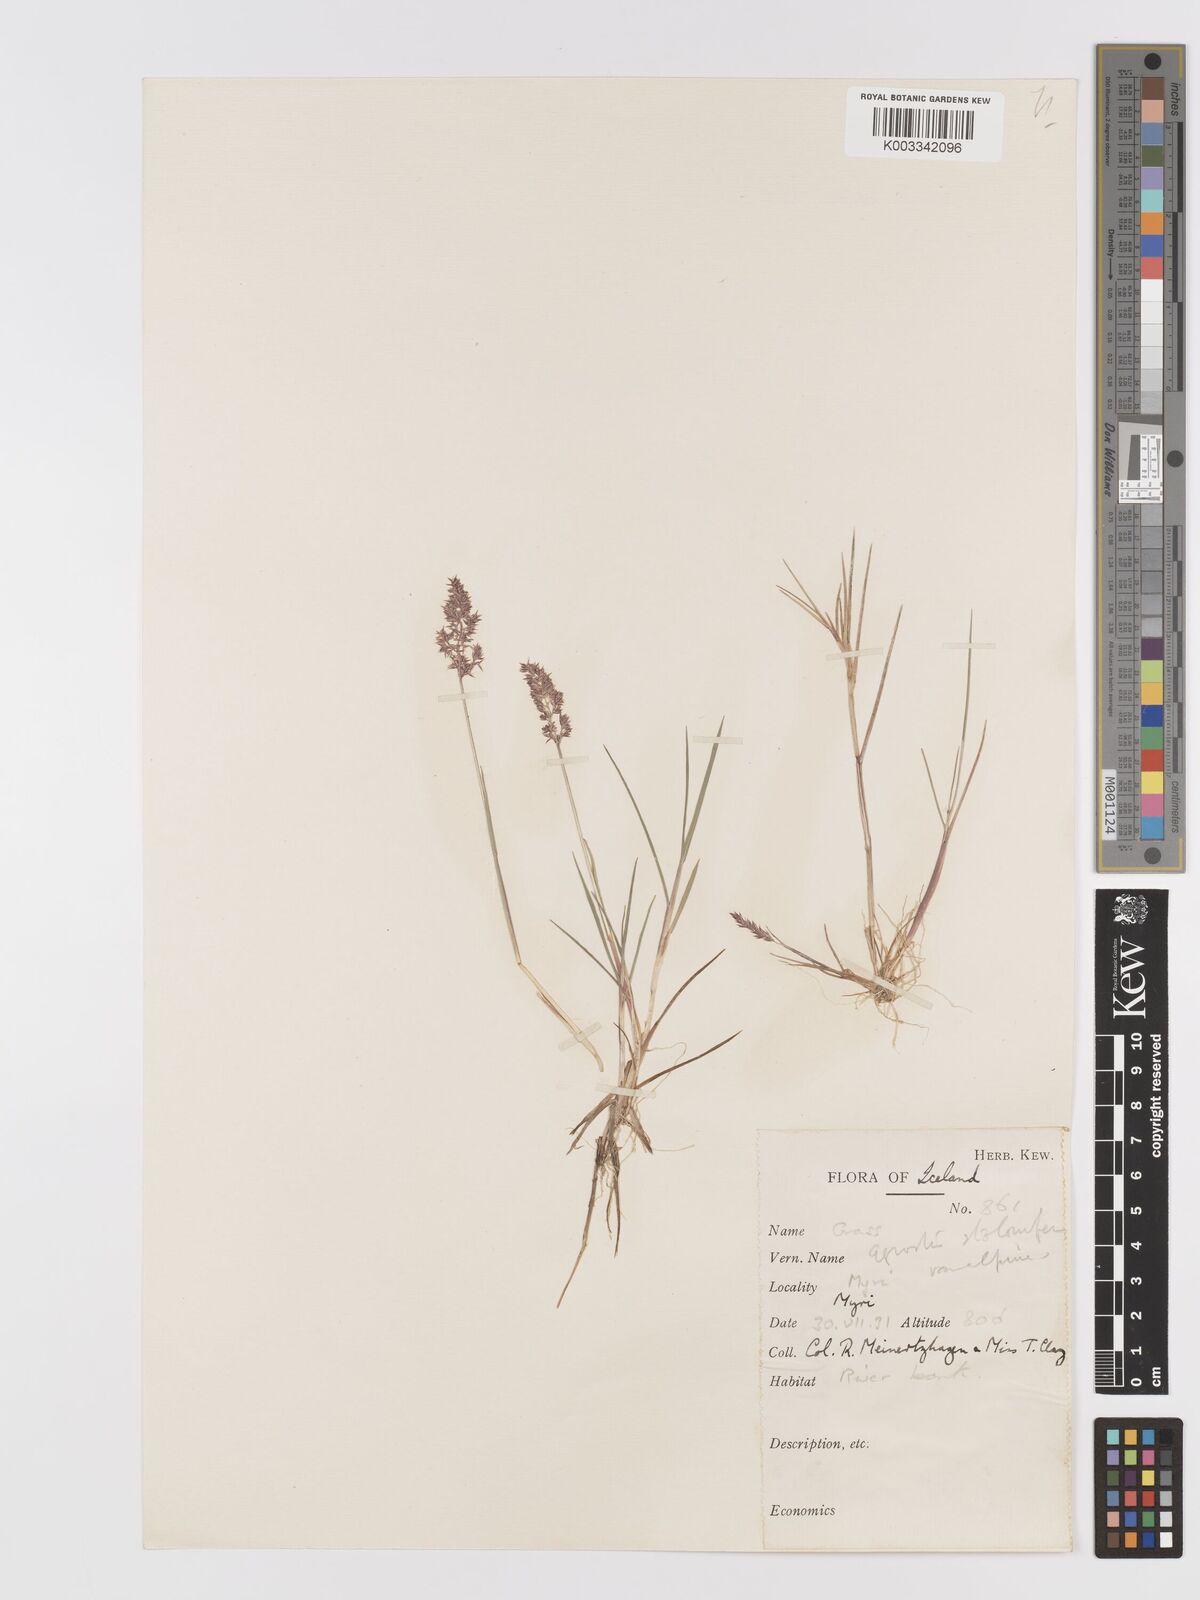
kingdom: Plantae
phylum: Tracheophyta
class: Liliopsida
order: Poales
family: Poaceae
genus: Agrostis
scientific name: Agrostis stolonifera
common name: Creeping bentgrass
